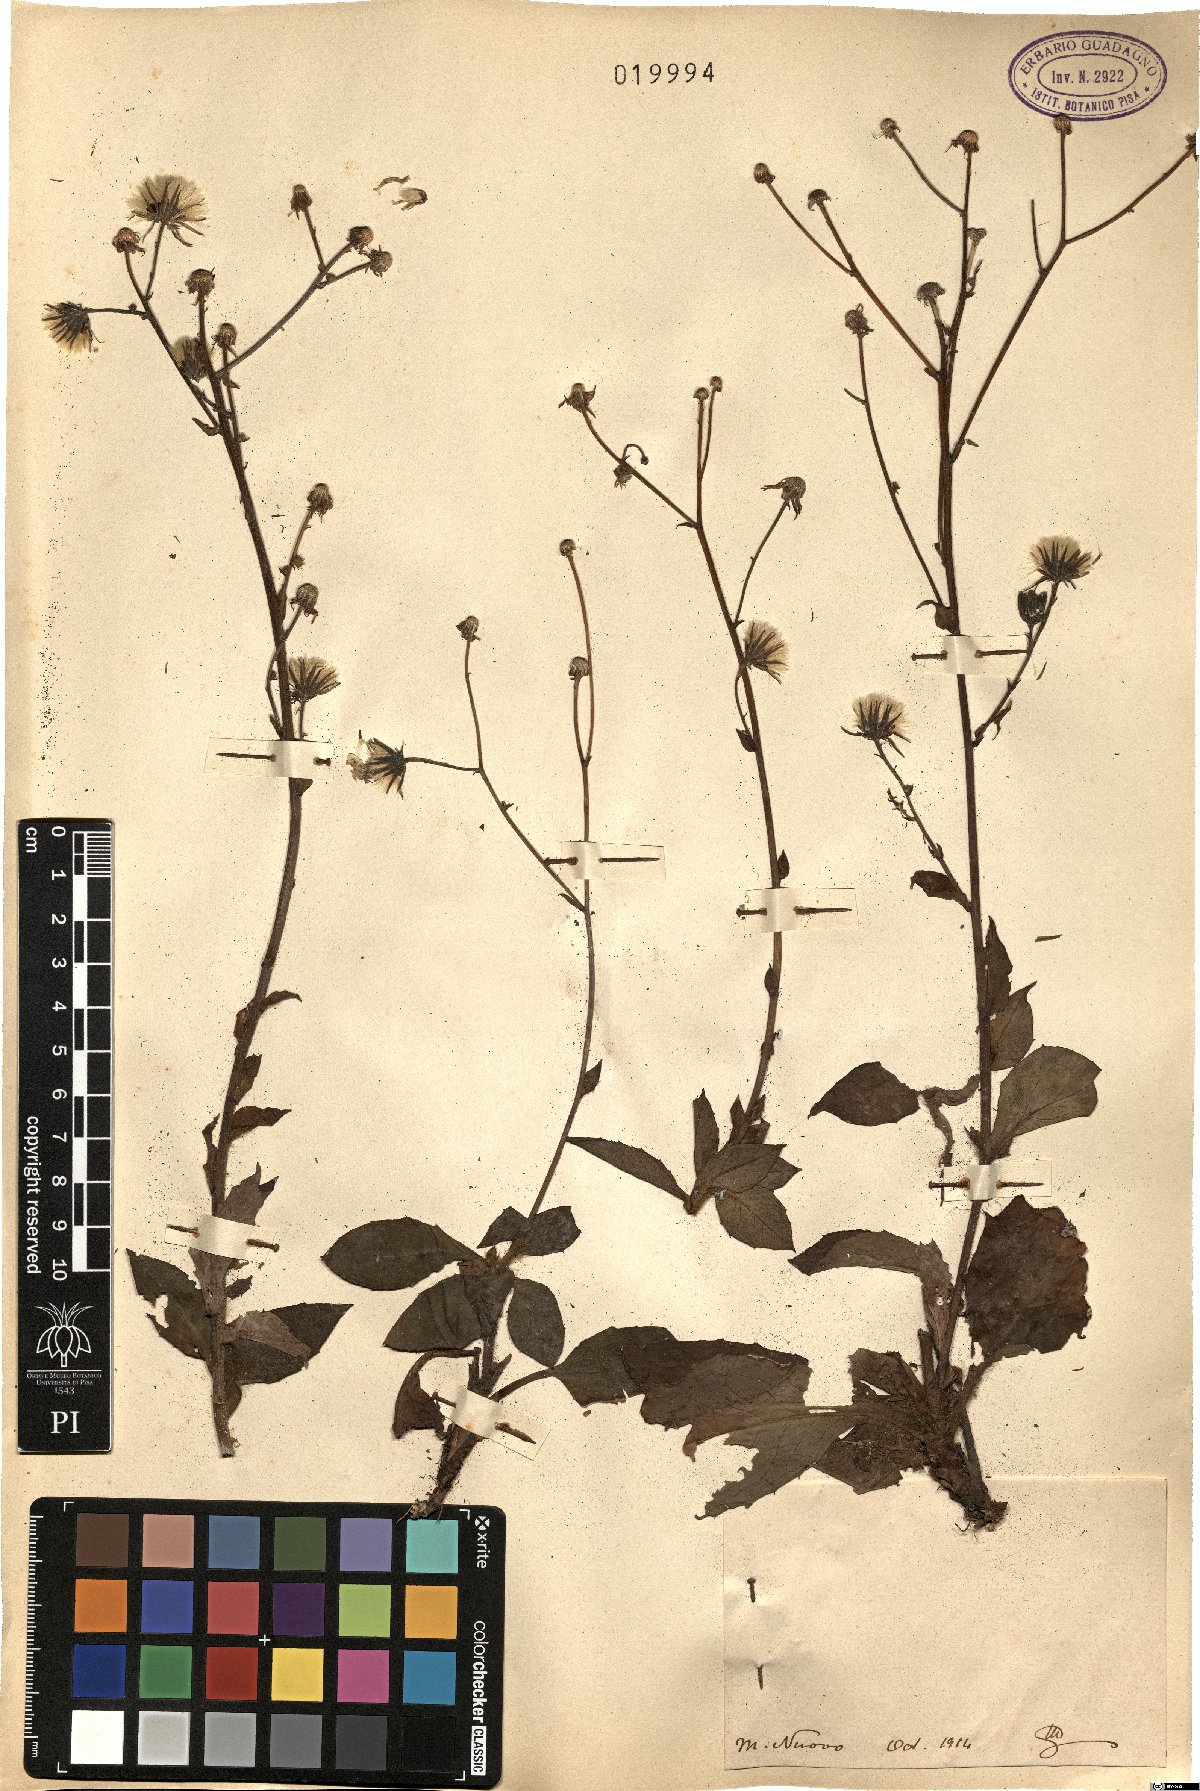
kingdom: Plantae
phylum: Tracheophyta
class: Magnoliopsida
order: Asterales
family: Asteraceae
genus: Hieracium
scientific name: Hieracium
